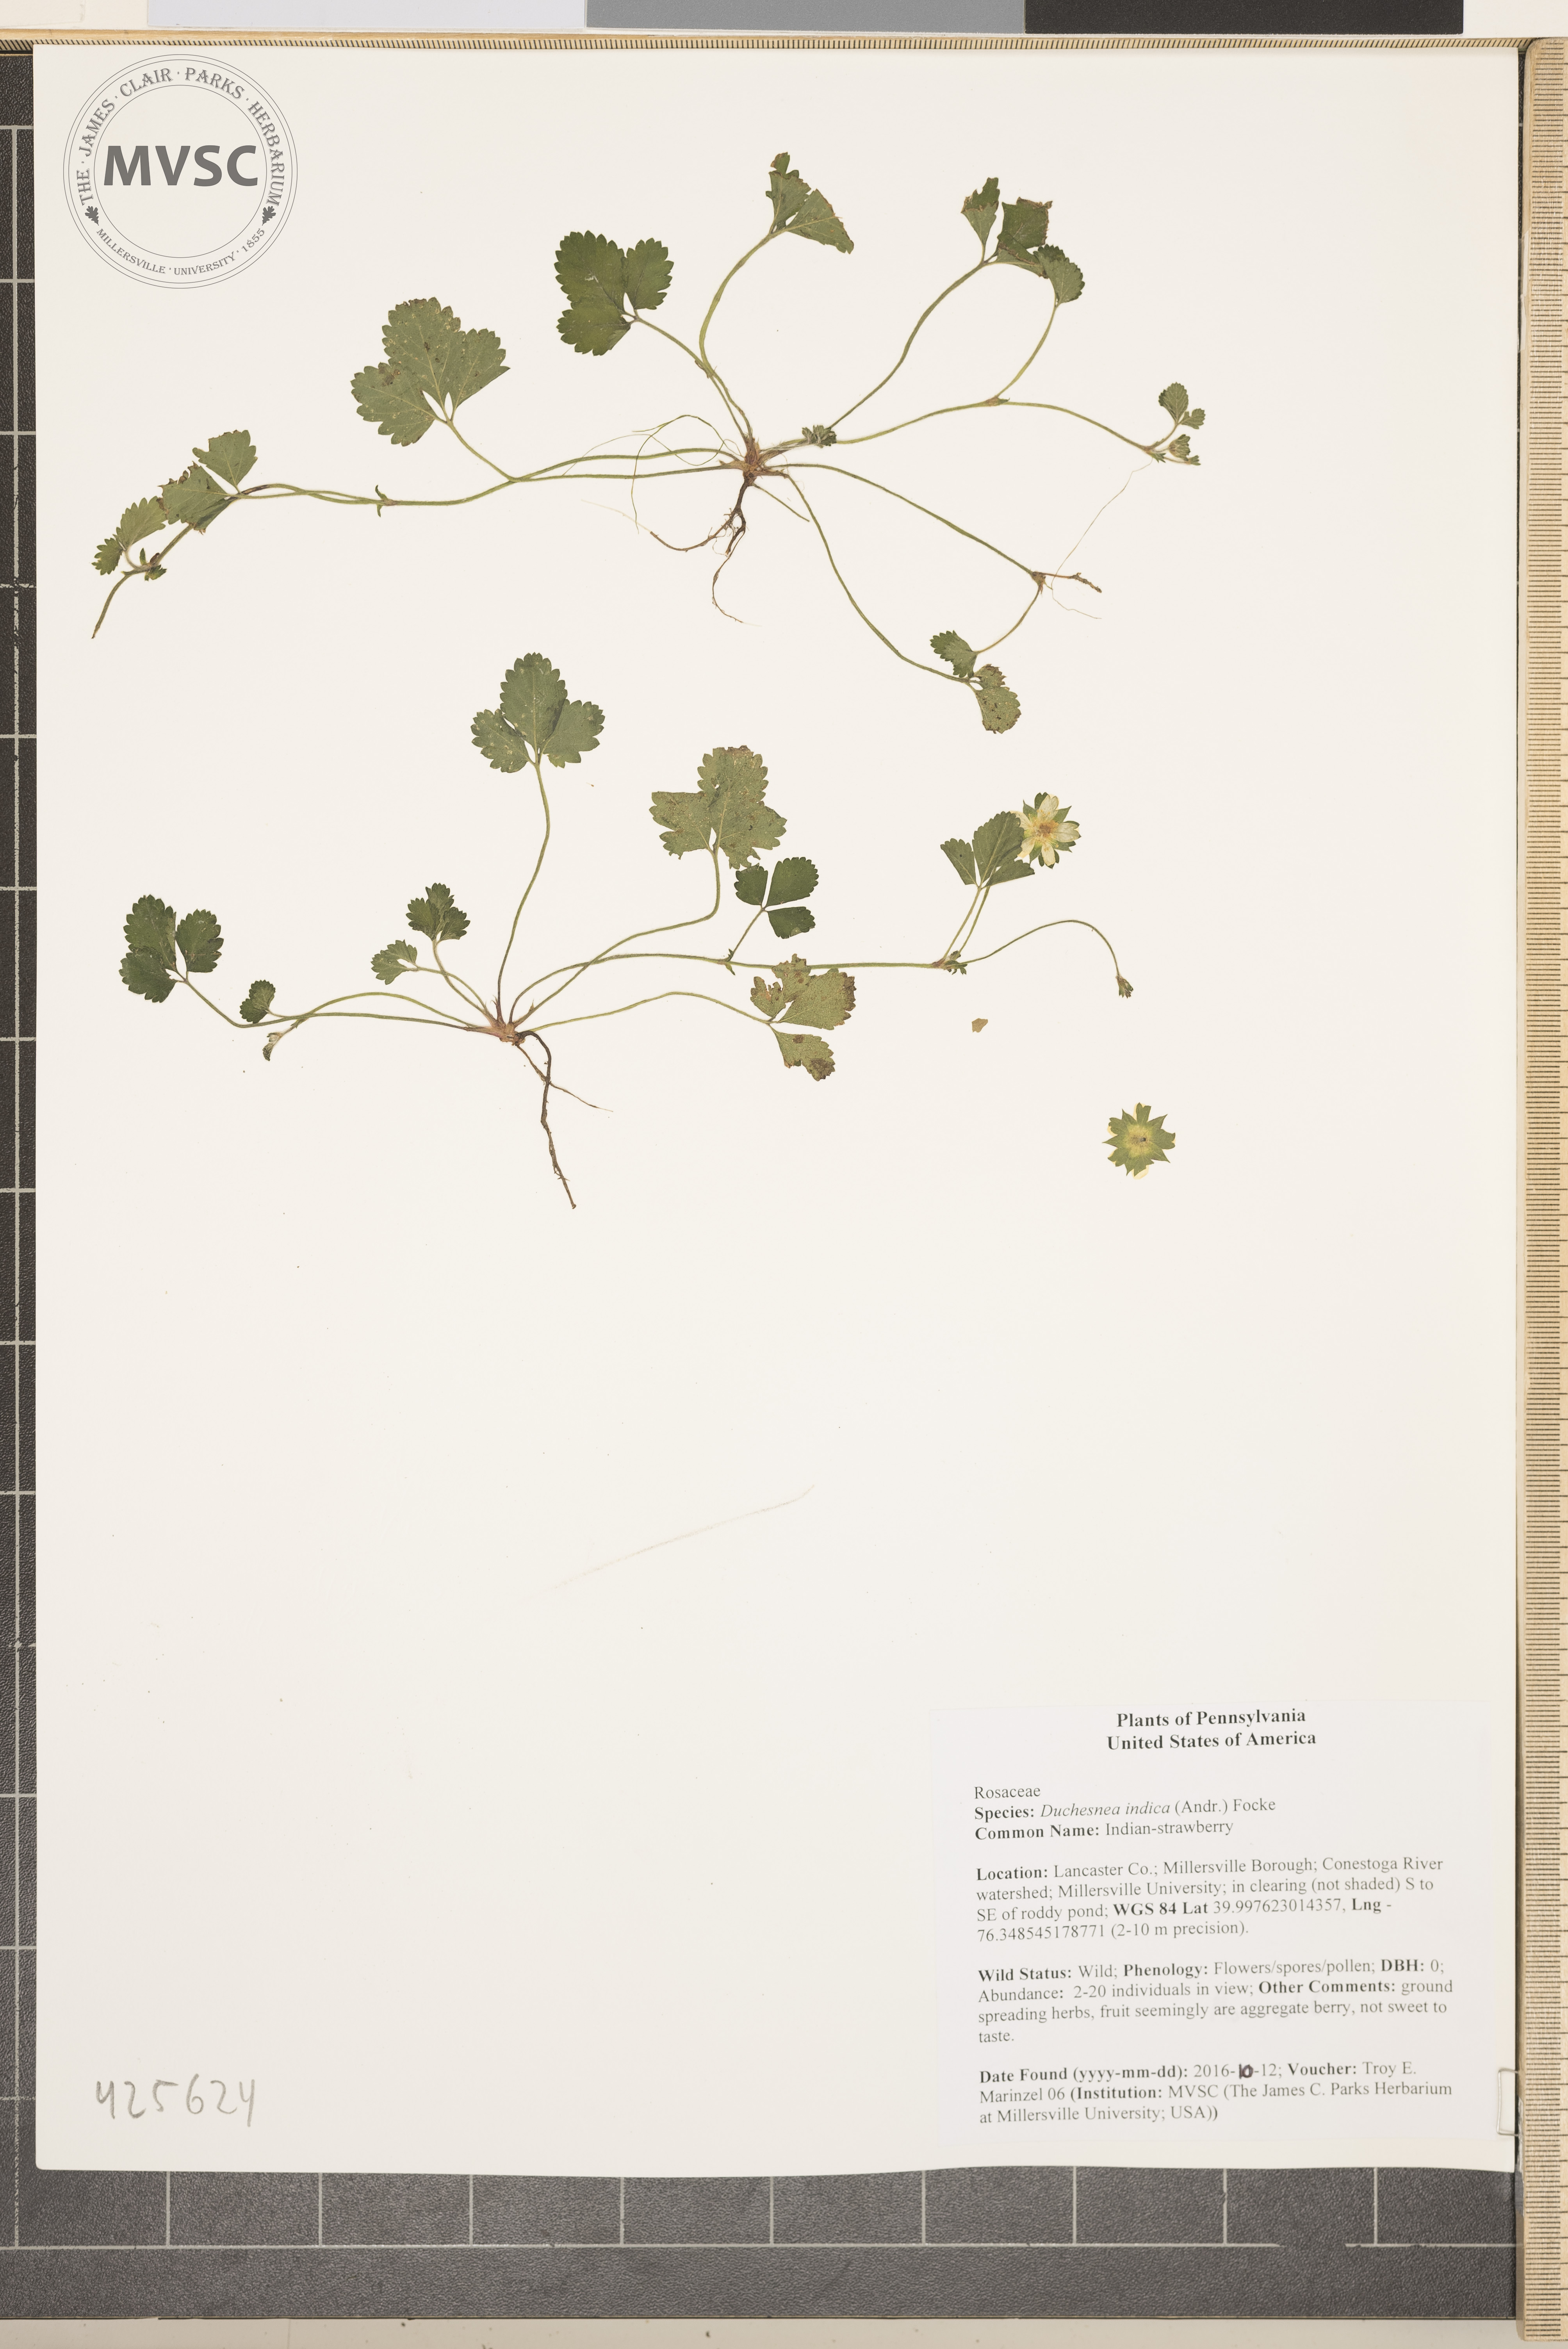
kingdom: Plantae
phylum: Tracheophyta
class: Magnoliopsida
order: Rosales
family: Rosaceae
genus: Potentilla
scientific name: Potentilla indica
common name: Indian-strawberry
